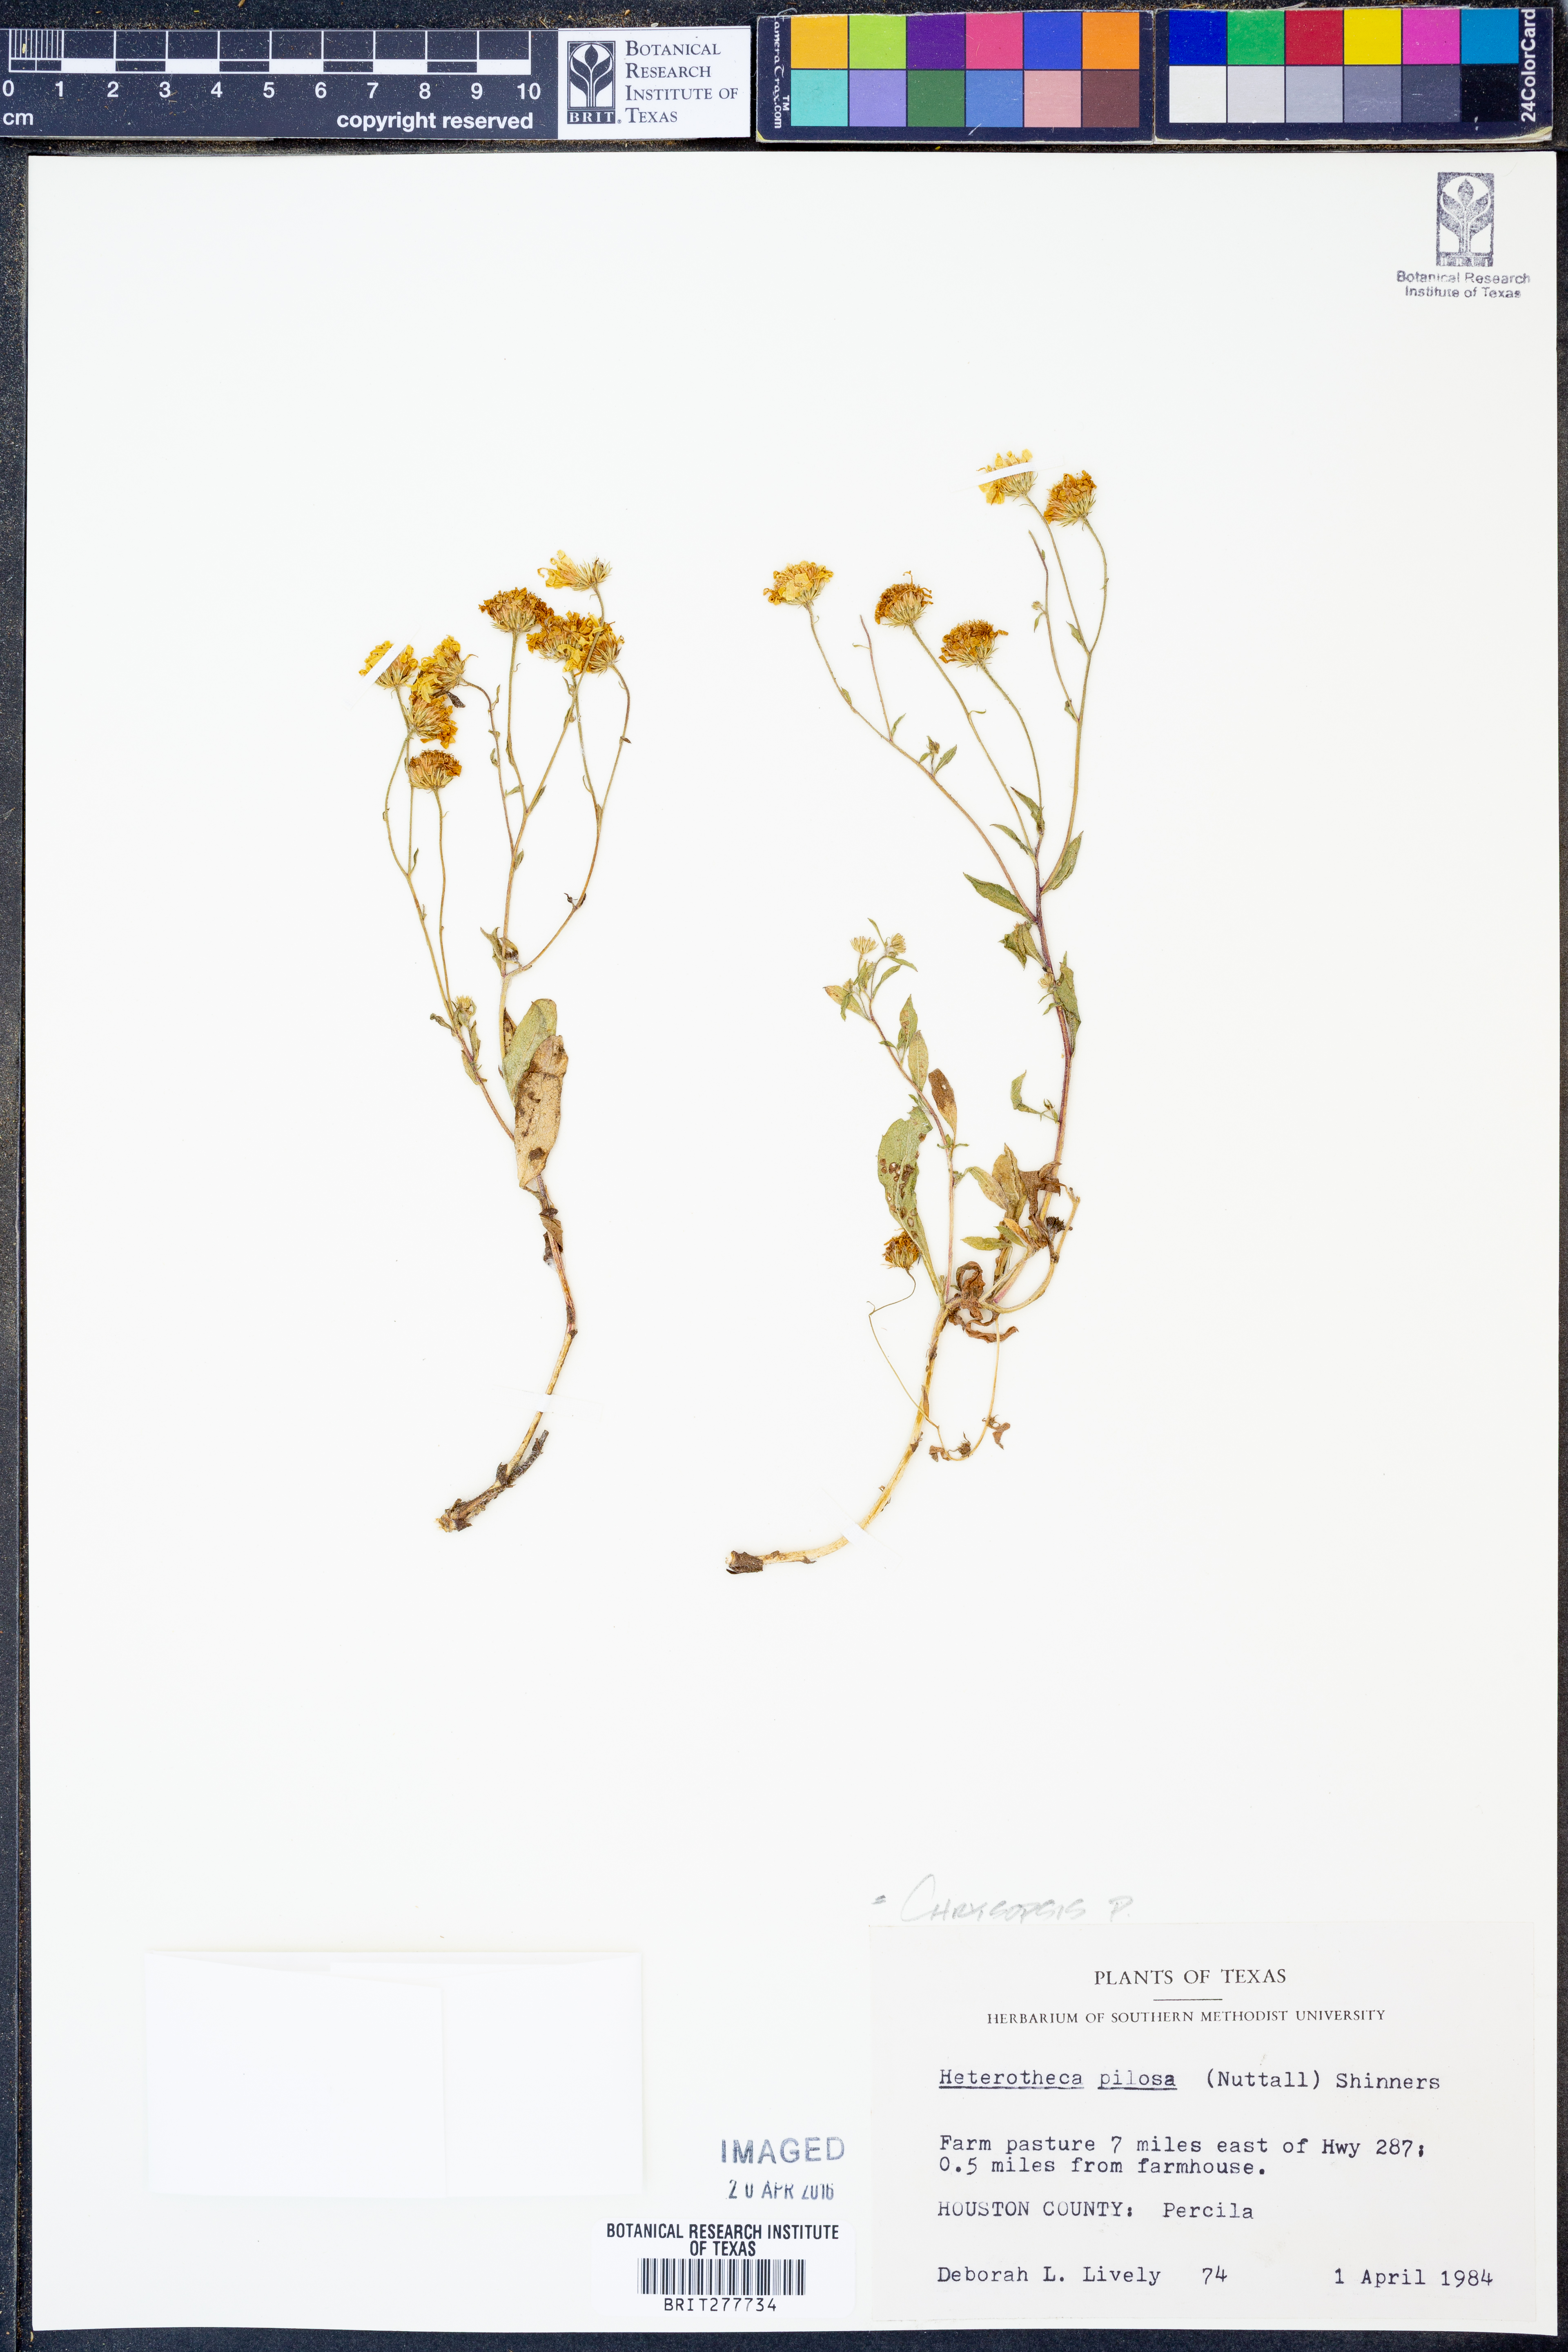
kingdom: Plantae
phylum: Tracheophyta
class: Magnoliopsida
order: Asterales
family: Asteraceae
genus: Bradburia
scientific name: Bradburia pilosa
